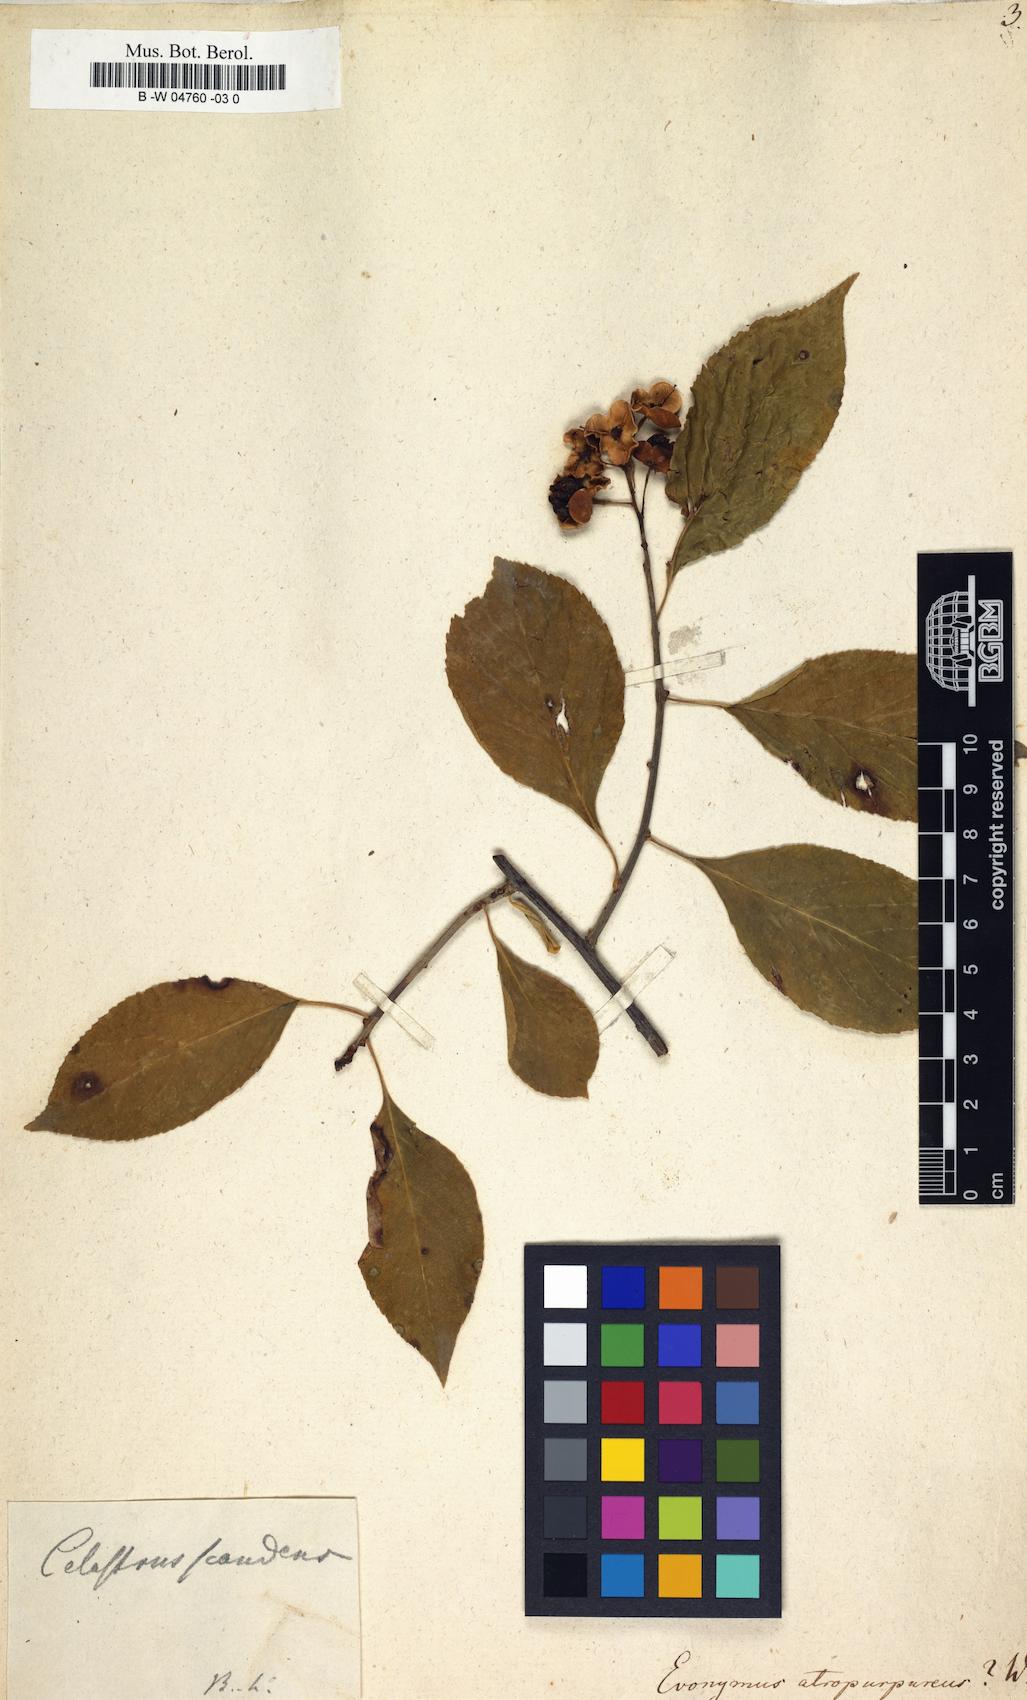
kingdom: Plantae
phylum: Tracheophyta
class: Magnoliopsida
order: Celastrales
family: Celastraceae
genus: Euonymus
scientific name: Euonymus atropurpureus
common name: Eastern wahoo
